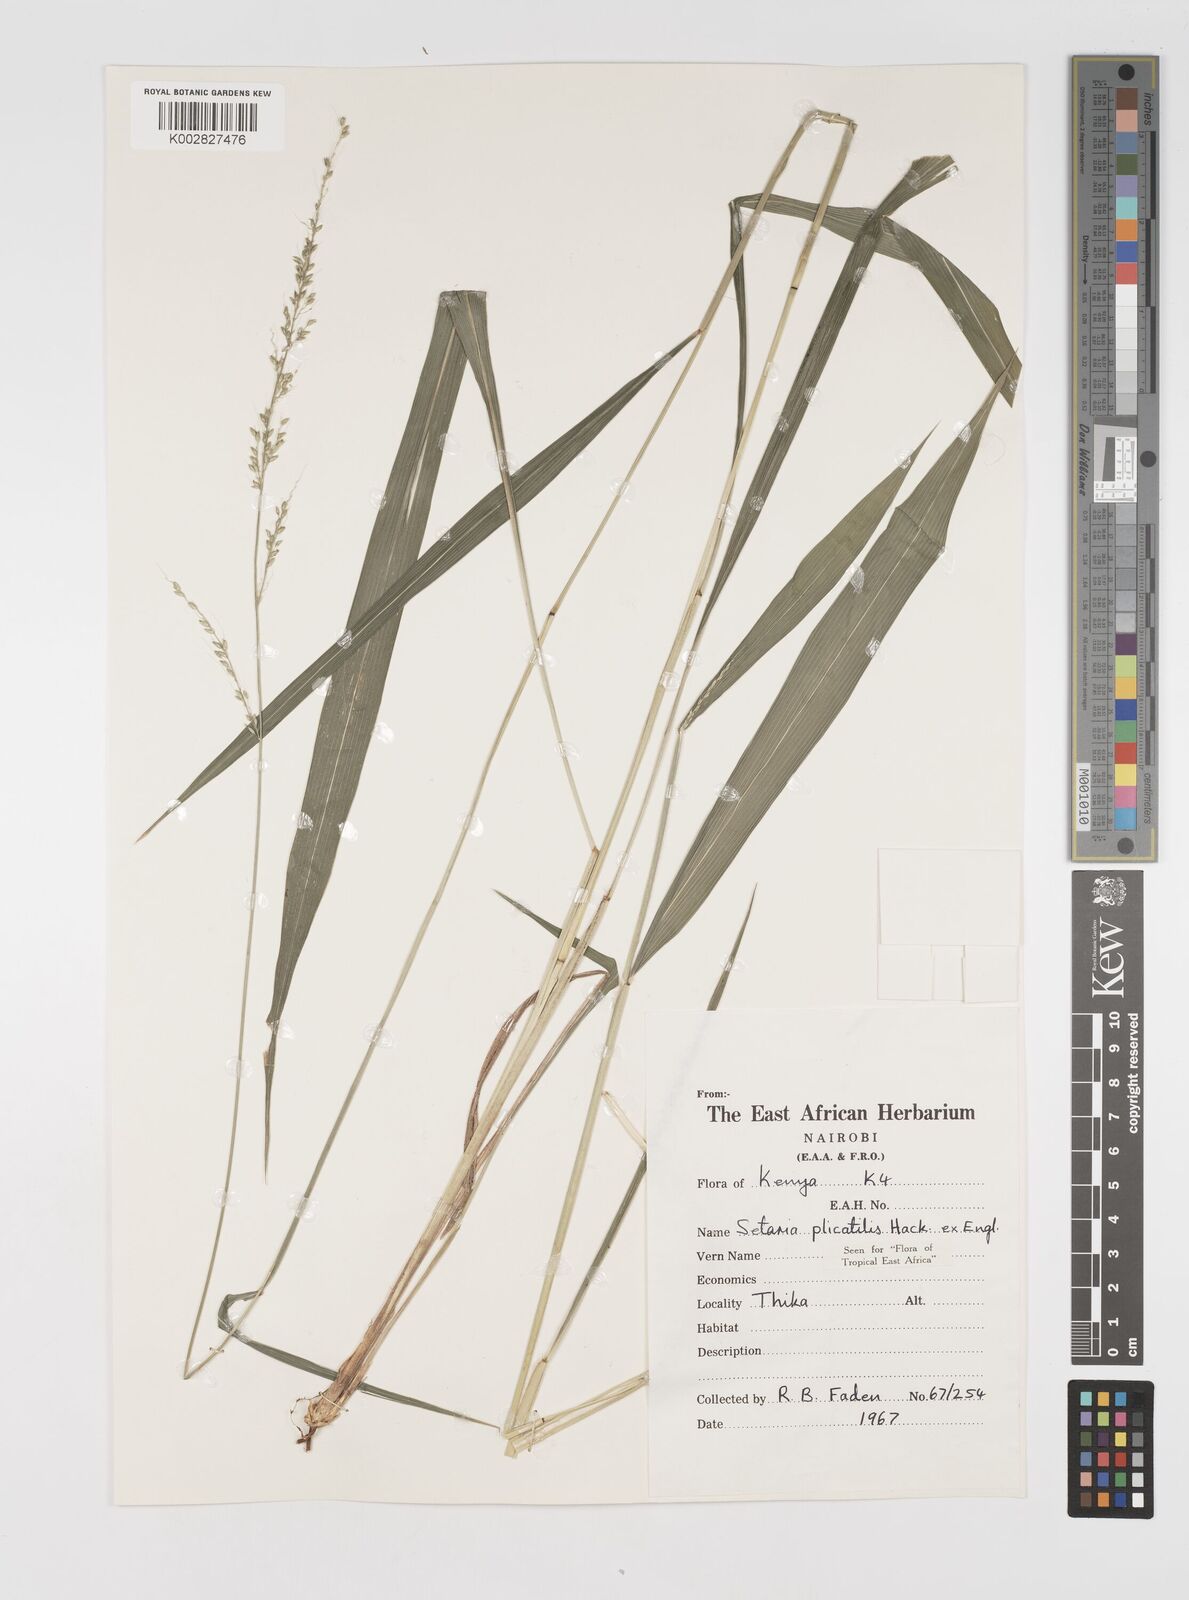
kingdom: Plantae
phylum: Tracheophyta
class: Liliopsida
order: Poales
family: Poaceae
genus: Setaria
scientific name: Setaria megaphylla
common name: Bigleaf bristlegrass
